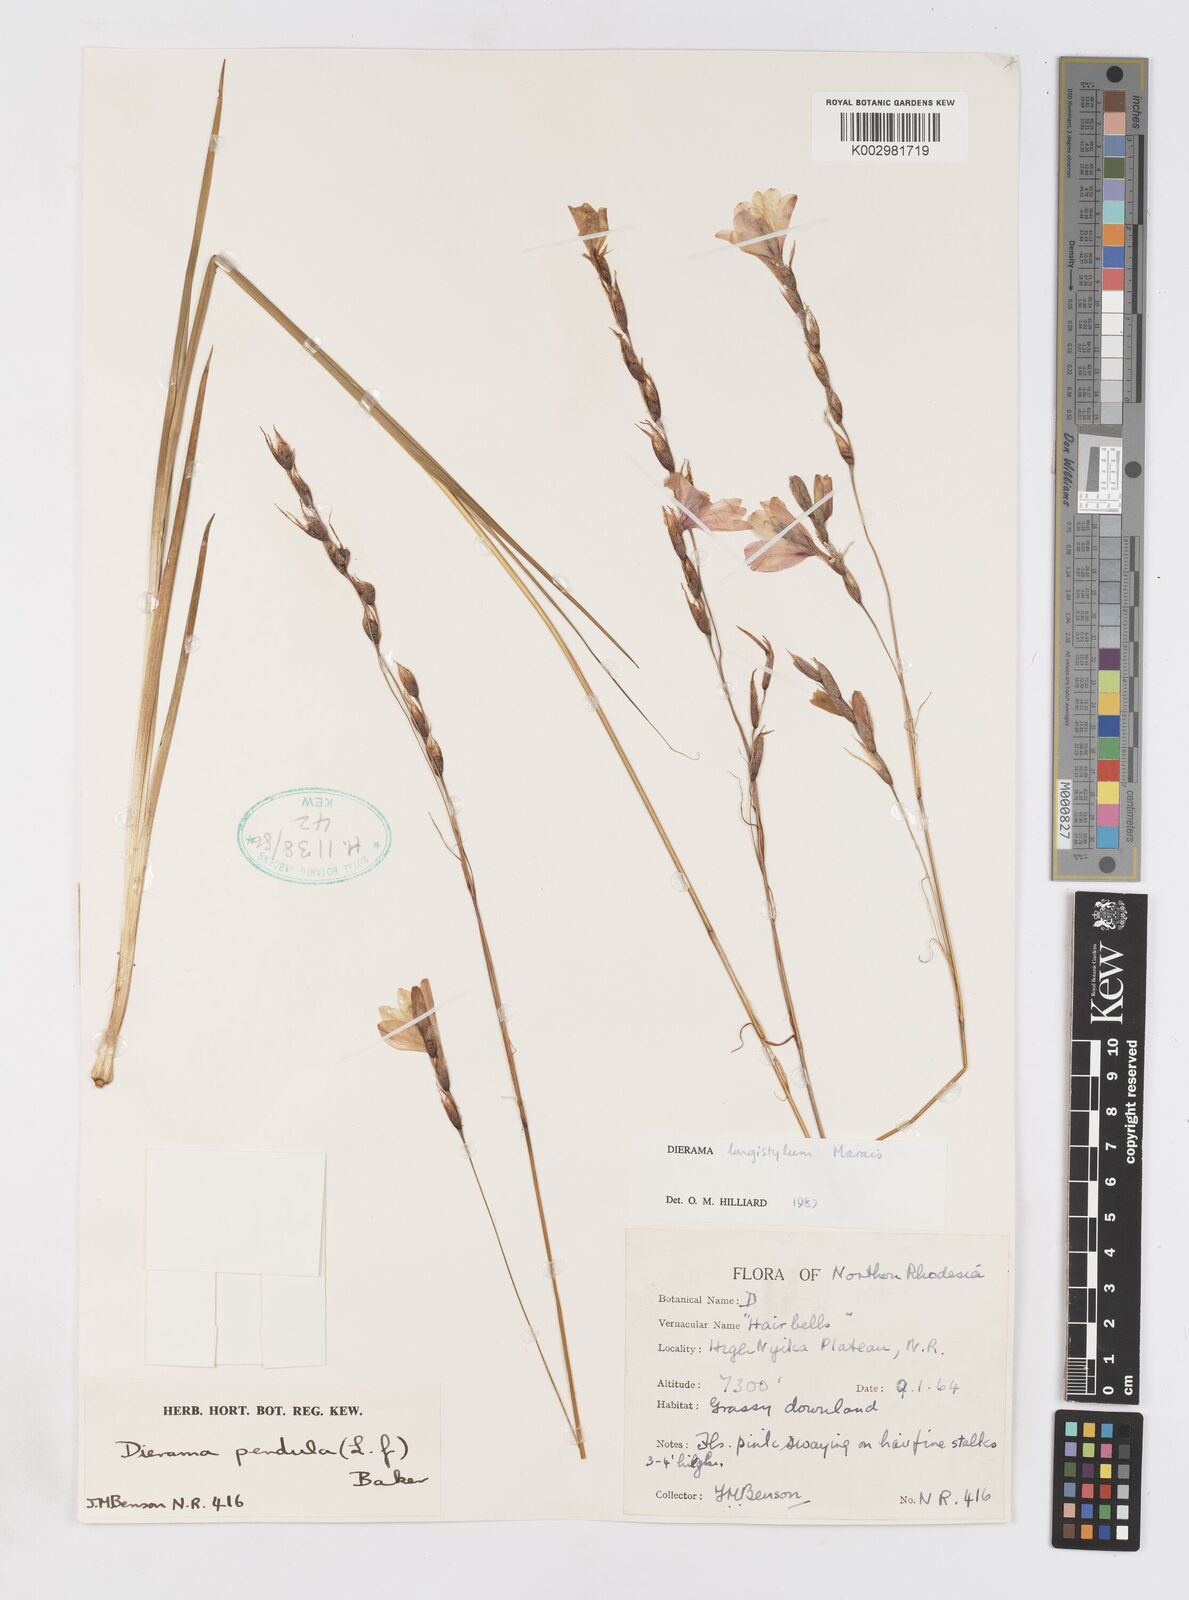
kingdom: Plantae
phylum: Tracheophyta
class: Liliopsida
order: Asparagales
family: Iridaceae
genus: Dierama
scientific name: Dierama longistylum
